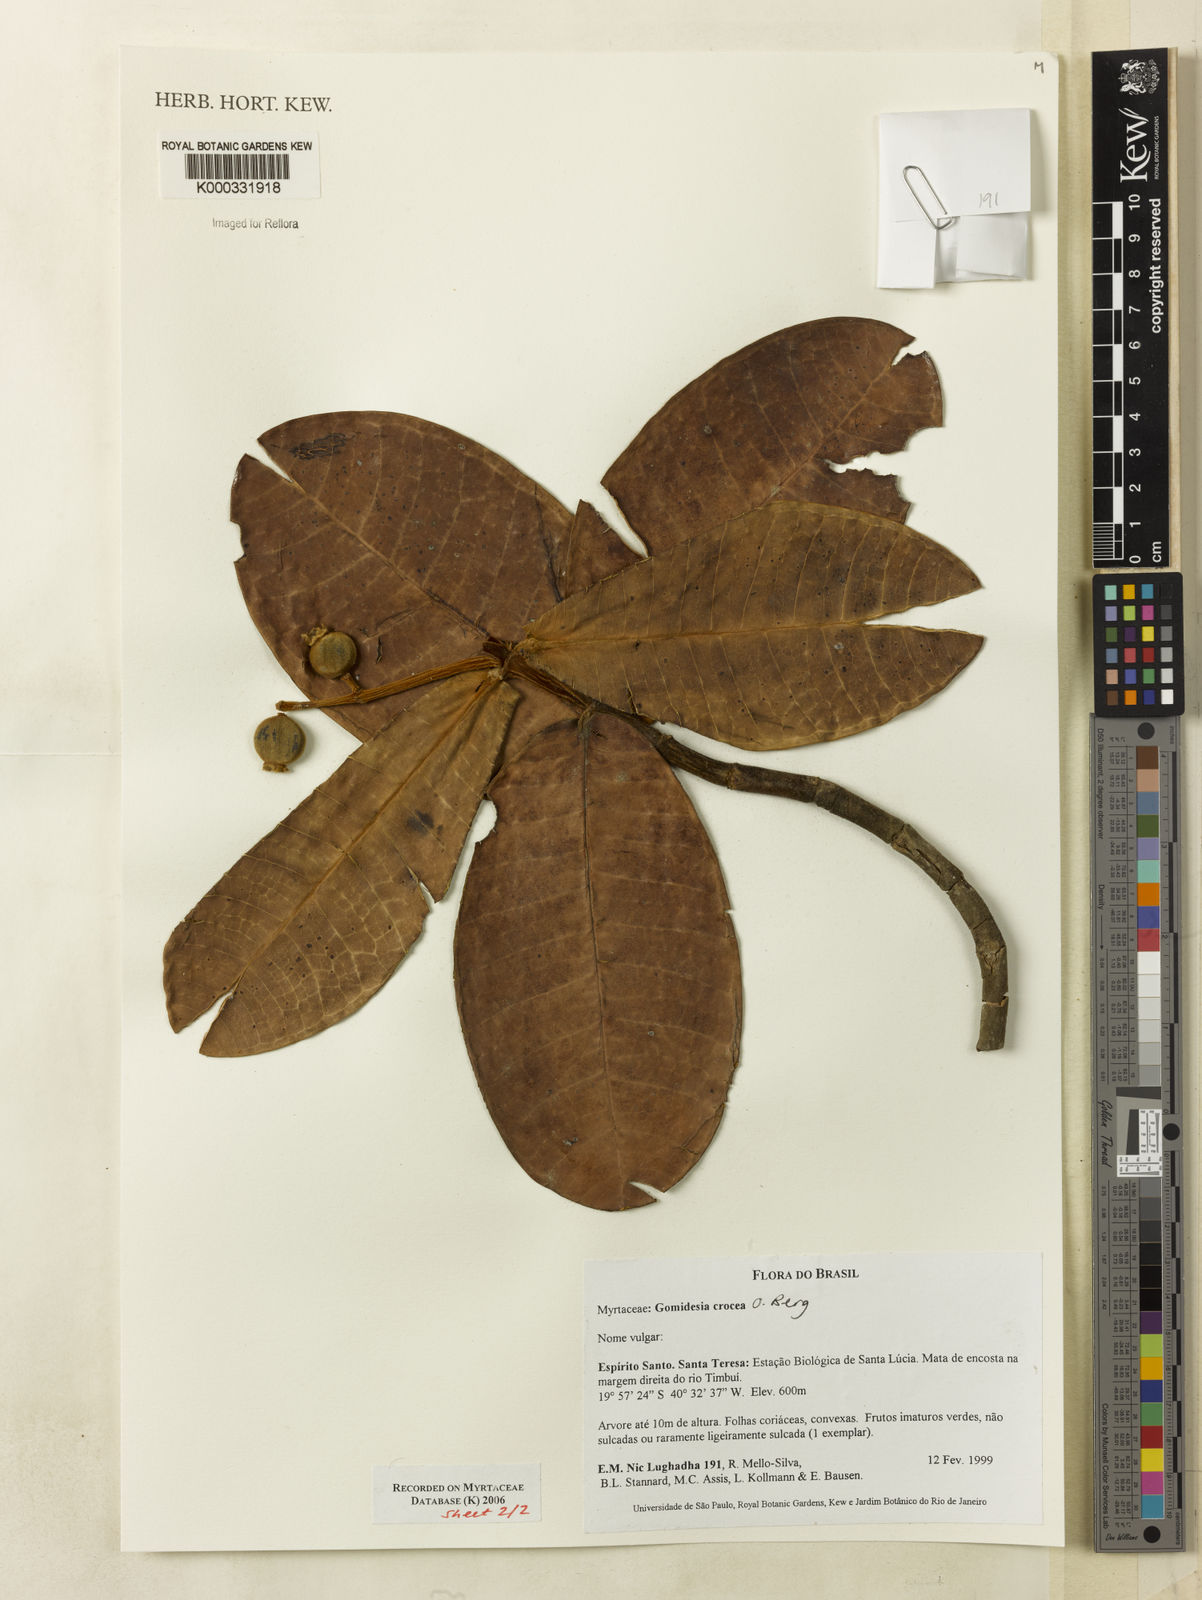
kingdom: Plantae
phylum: Tracheophyta
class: Magnoliopsida
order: Myrtales
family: Myrtaceae
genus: Myrcia
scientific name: Myrcia amplexicaulis
